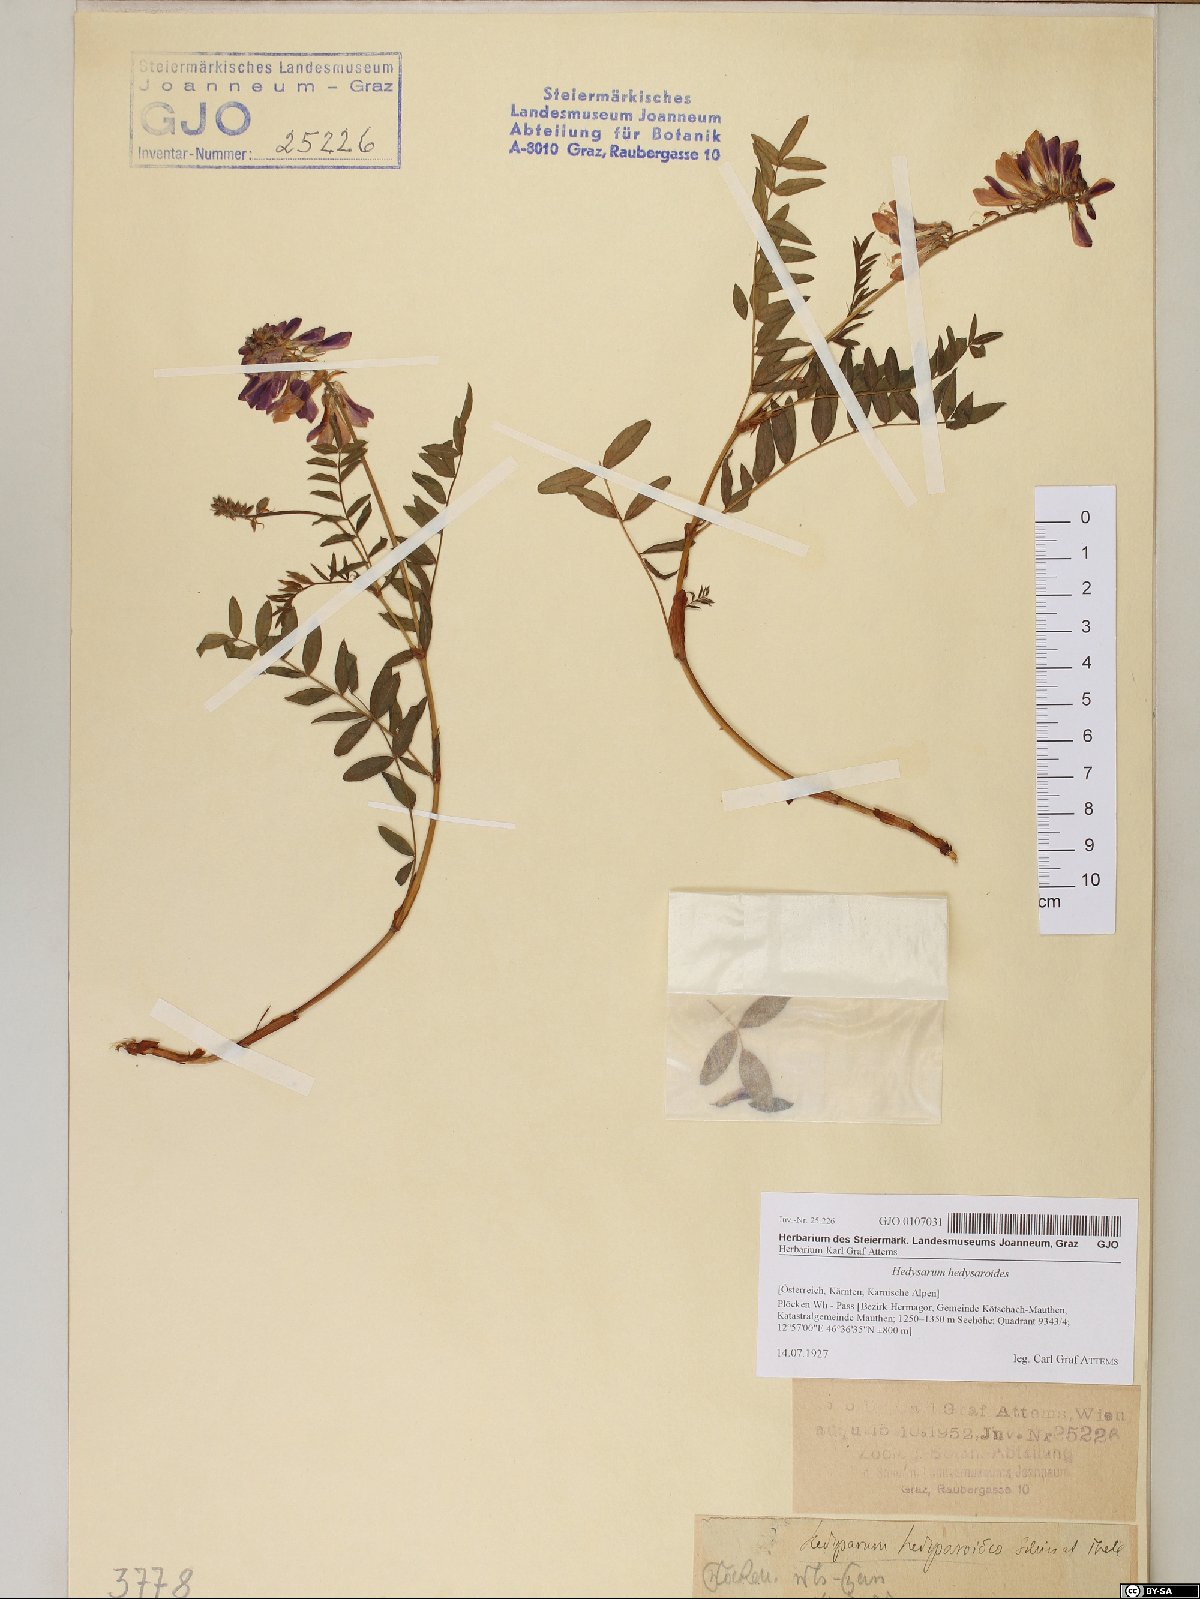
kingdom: Plantae
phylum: Tracheophyta
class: Magnoliopsida
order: Fabales
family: Fabaceae
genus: Hedysarum
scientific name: Hedysarum hedysaroides
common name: Alpine french-honeysuckle
